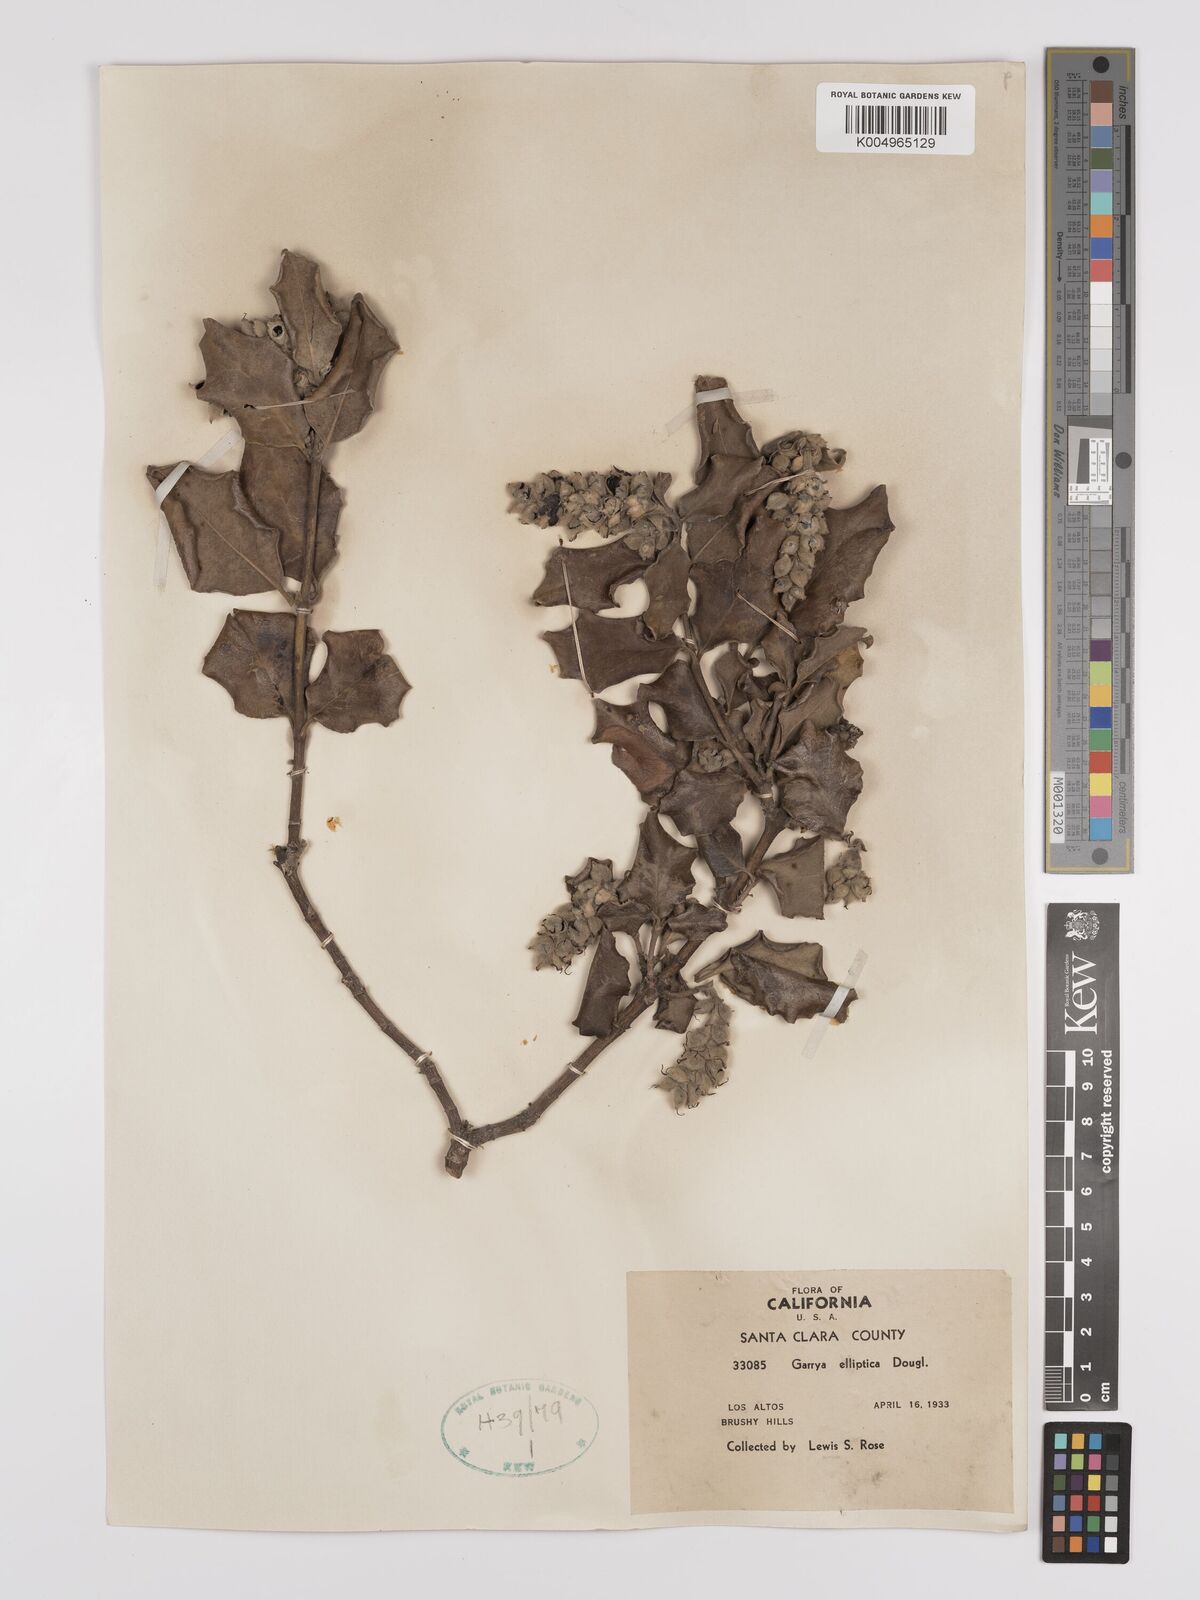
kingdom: Plantae
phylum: Tracheophyta
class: Magnoliopsida
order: Garryales
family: Garryaceae
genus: Garrya
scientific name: Garrya elliptica
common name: Silk-tassel
